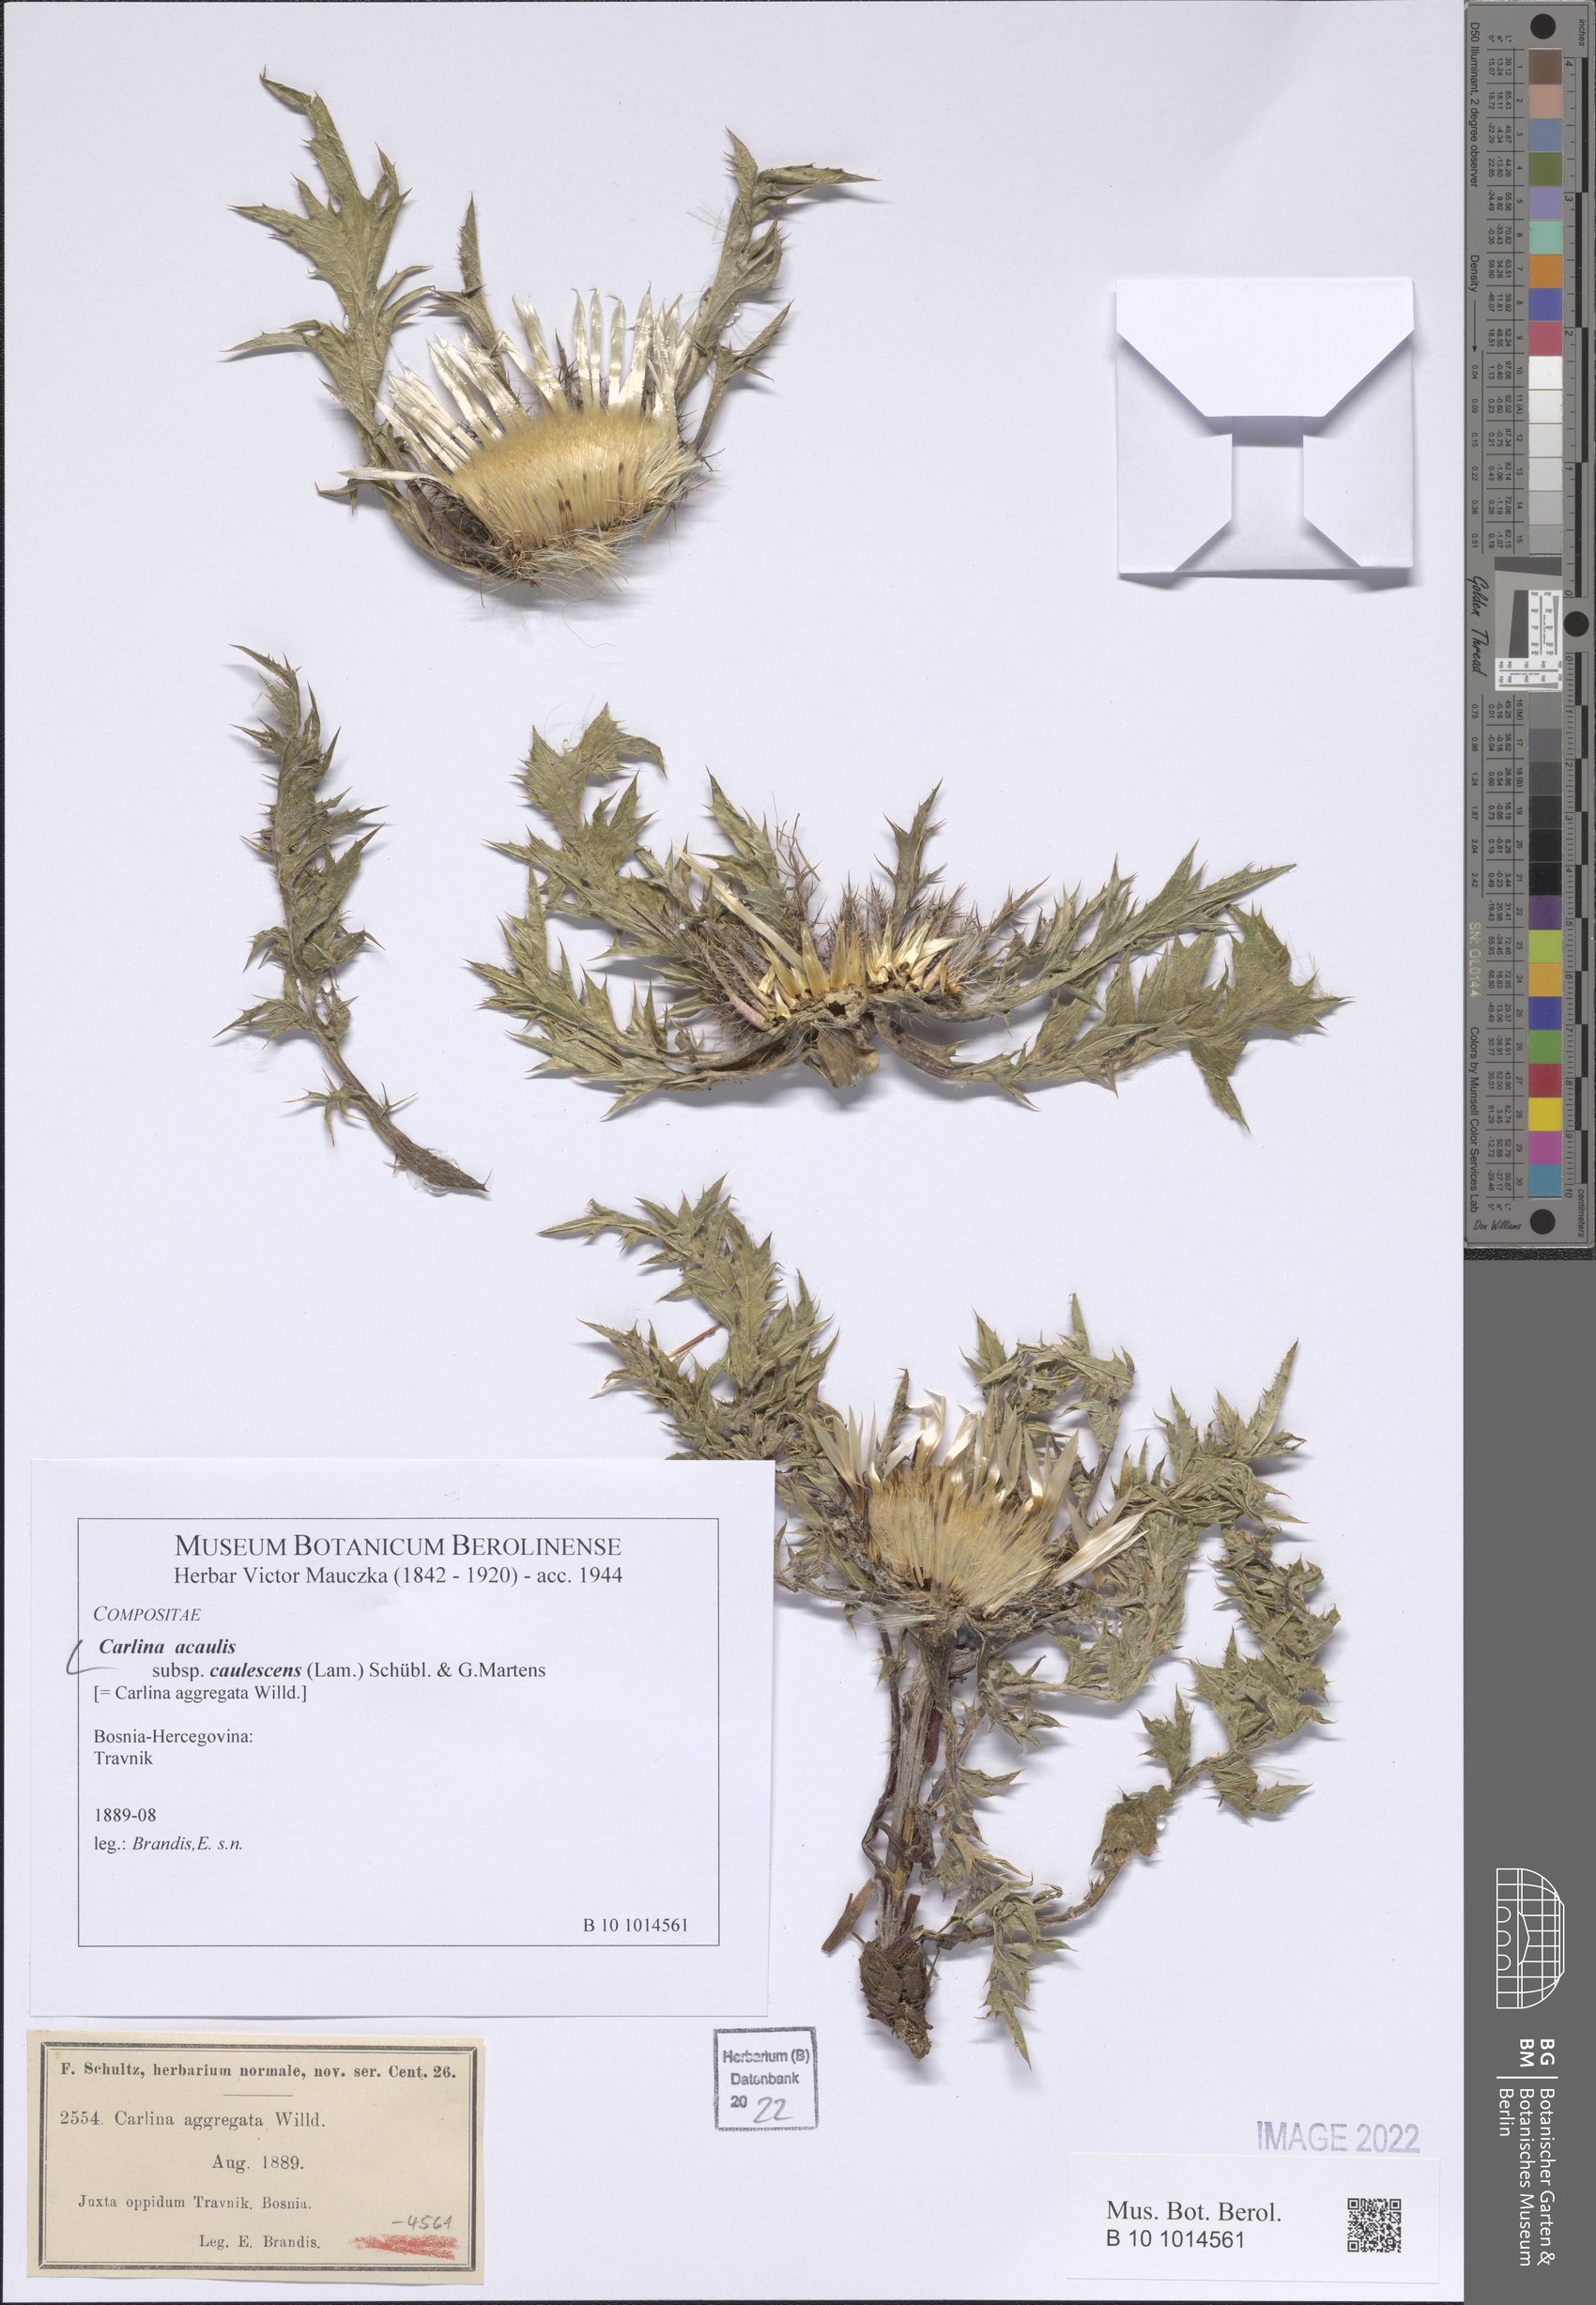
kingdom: Plantae
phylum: Tracheophyta
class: Magnoliopsida
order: Asterales
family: Asteraceae
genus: Carlina
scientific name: Carlina acaulis
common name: Stemless carline thistle
